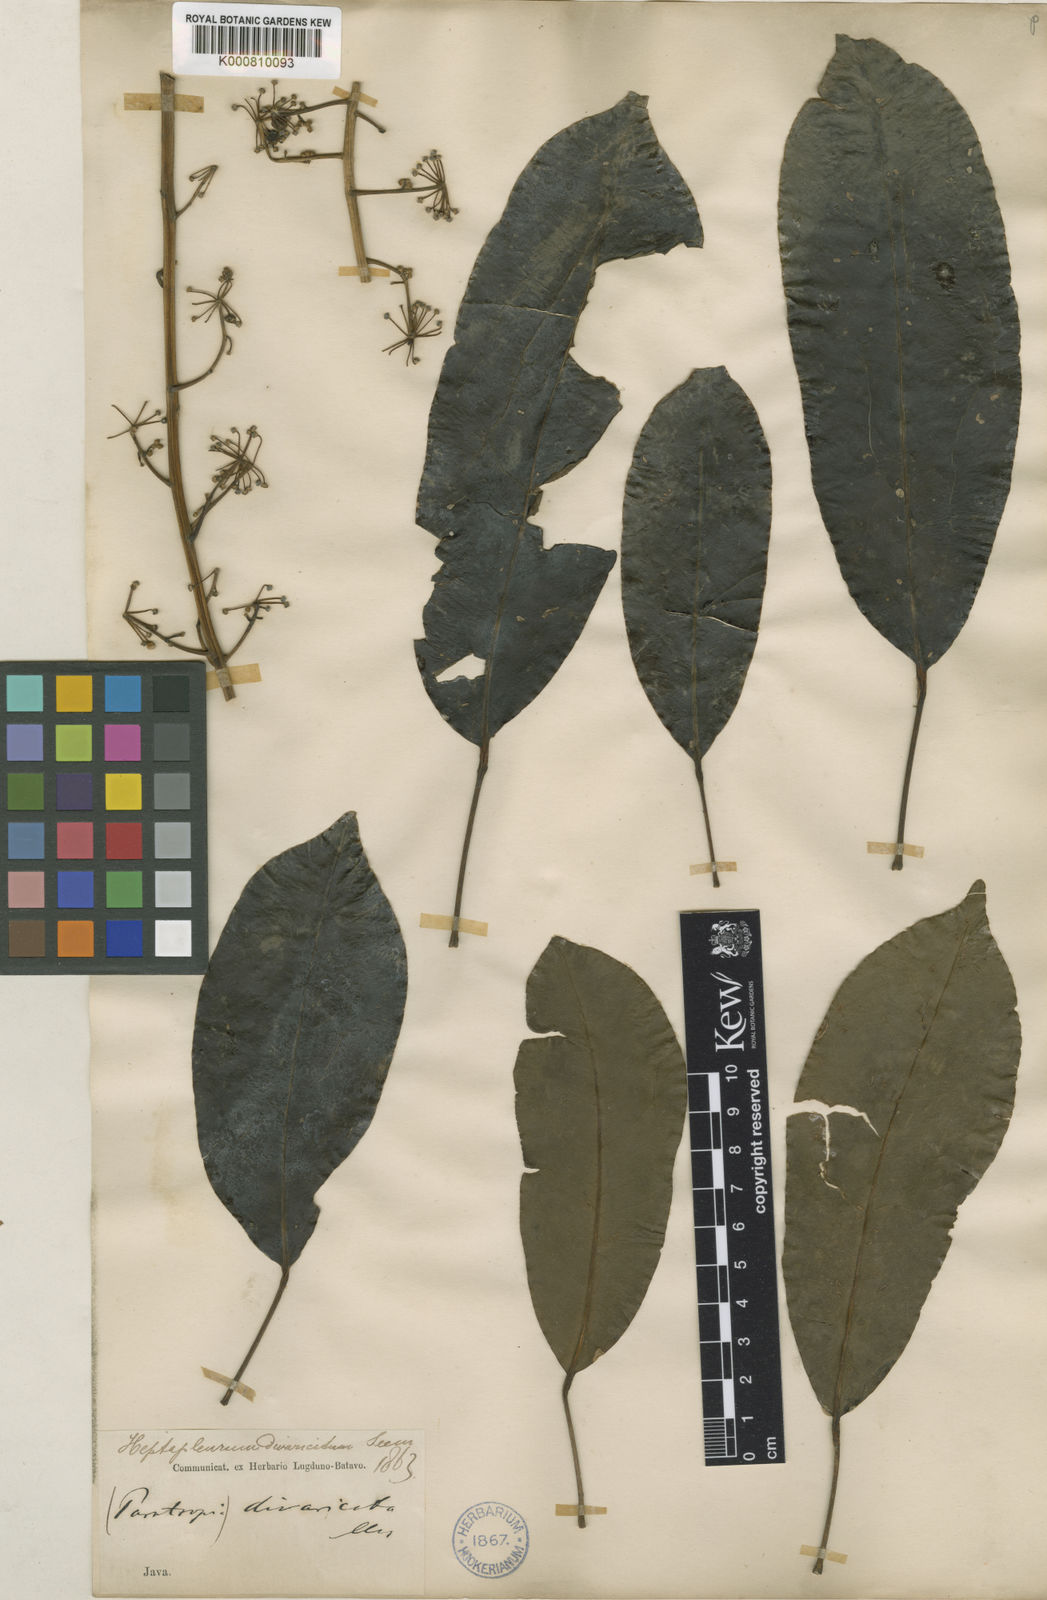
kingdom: Plantae
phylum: Tracheophyta
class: Magnoliopsida
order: Apiales
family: Araliaceae
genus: Heptapleurum
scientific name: Heptapleurum divaricatum
